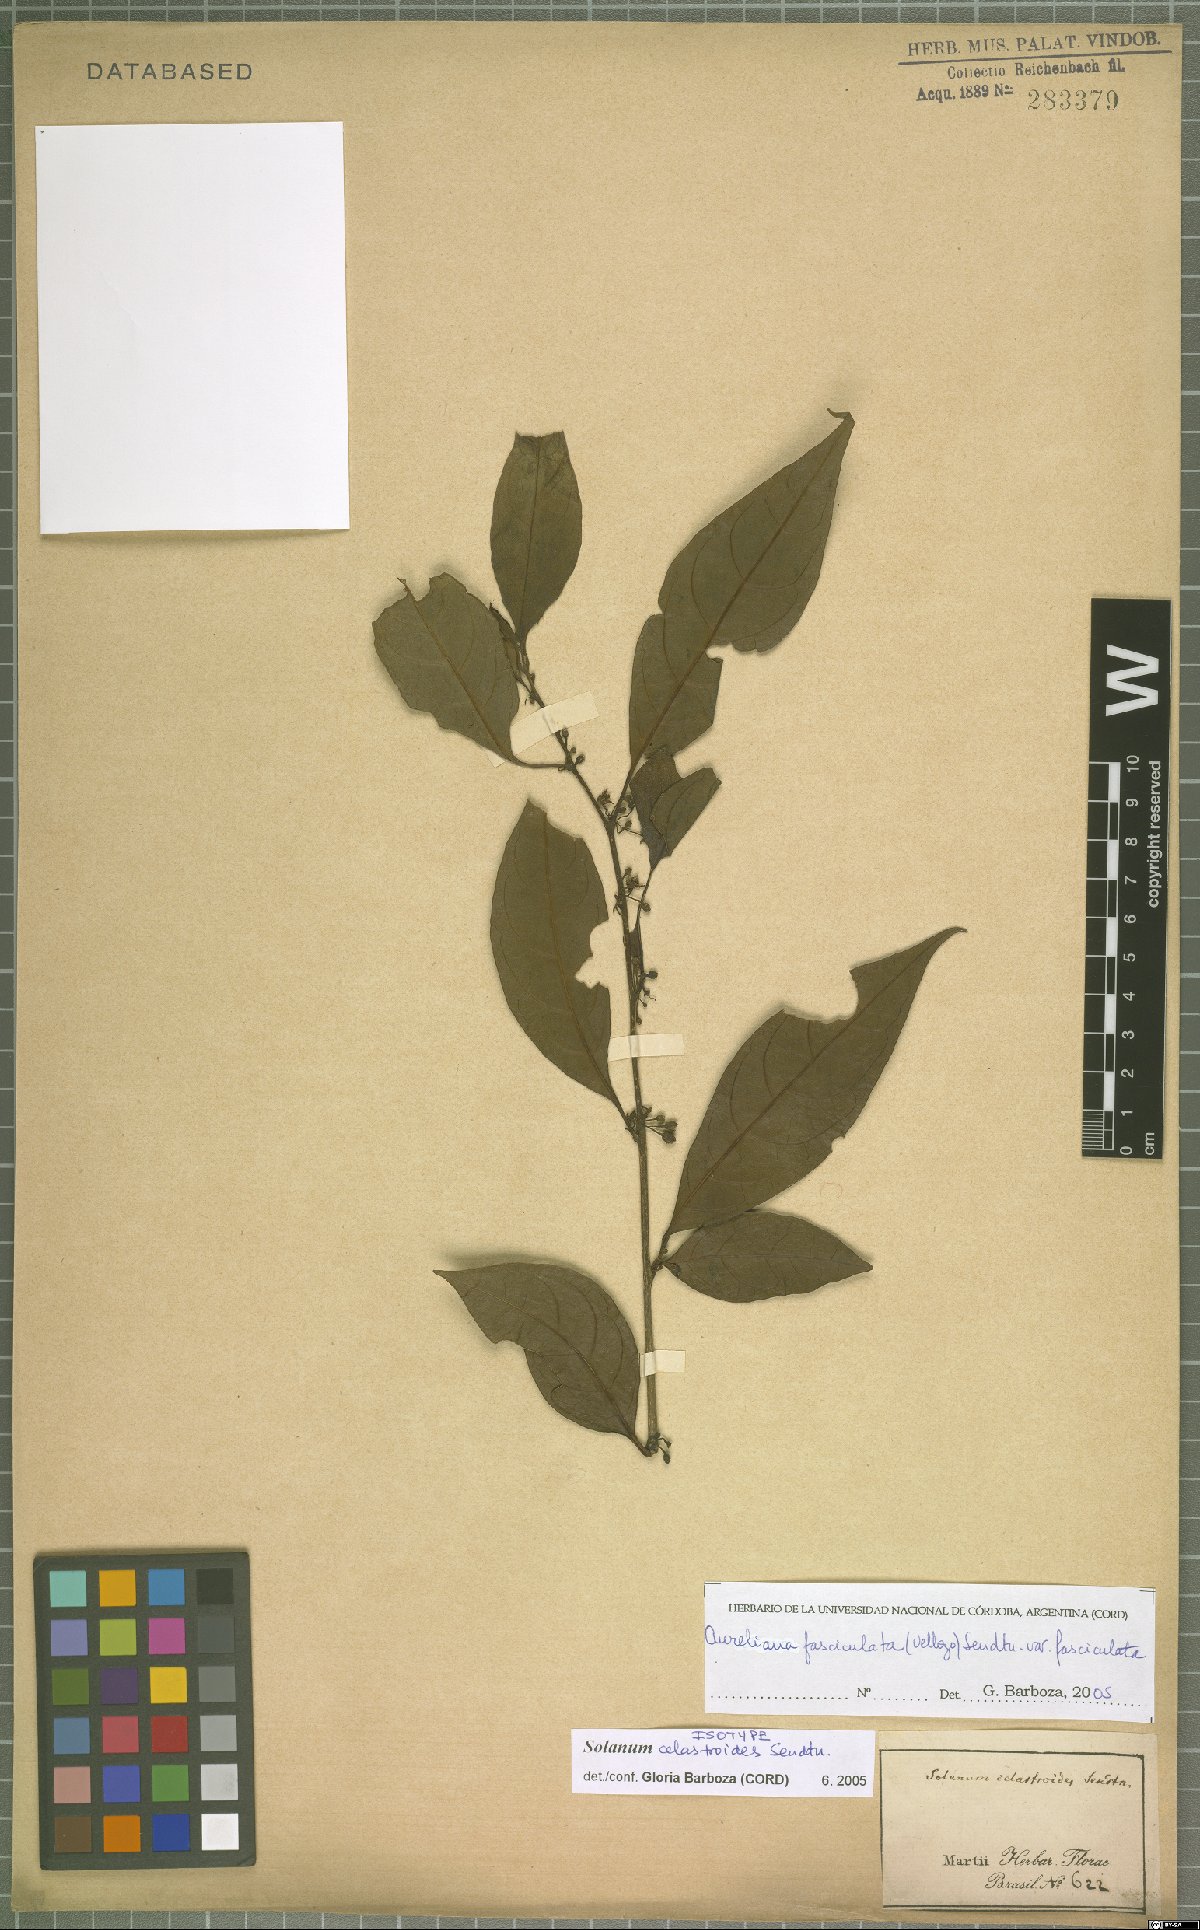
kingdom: Plantae
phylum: Tracheophyta
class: Magnoliopsida
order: Solanales
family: Solanaceae
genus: Athenaea
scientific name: Athenaea fasciculata
